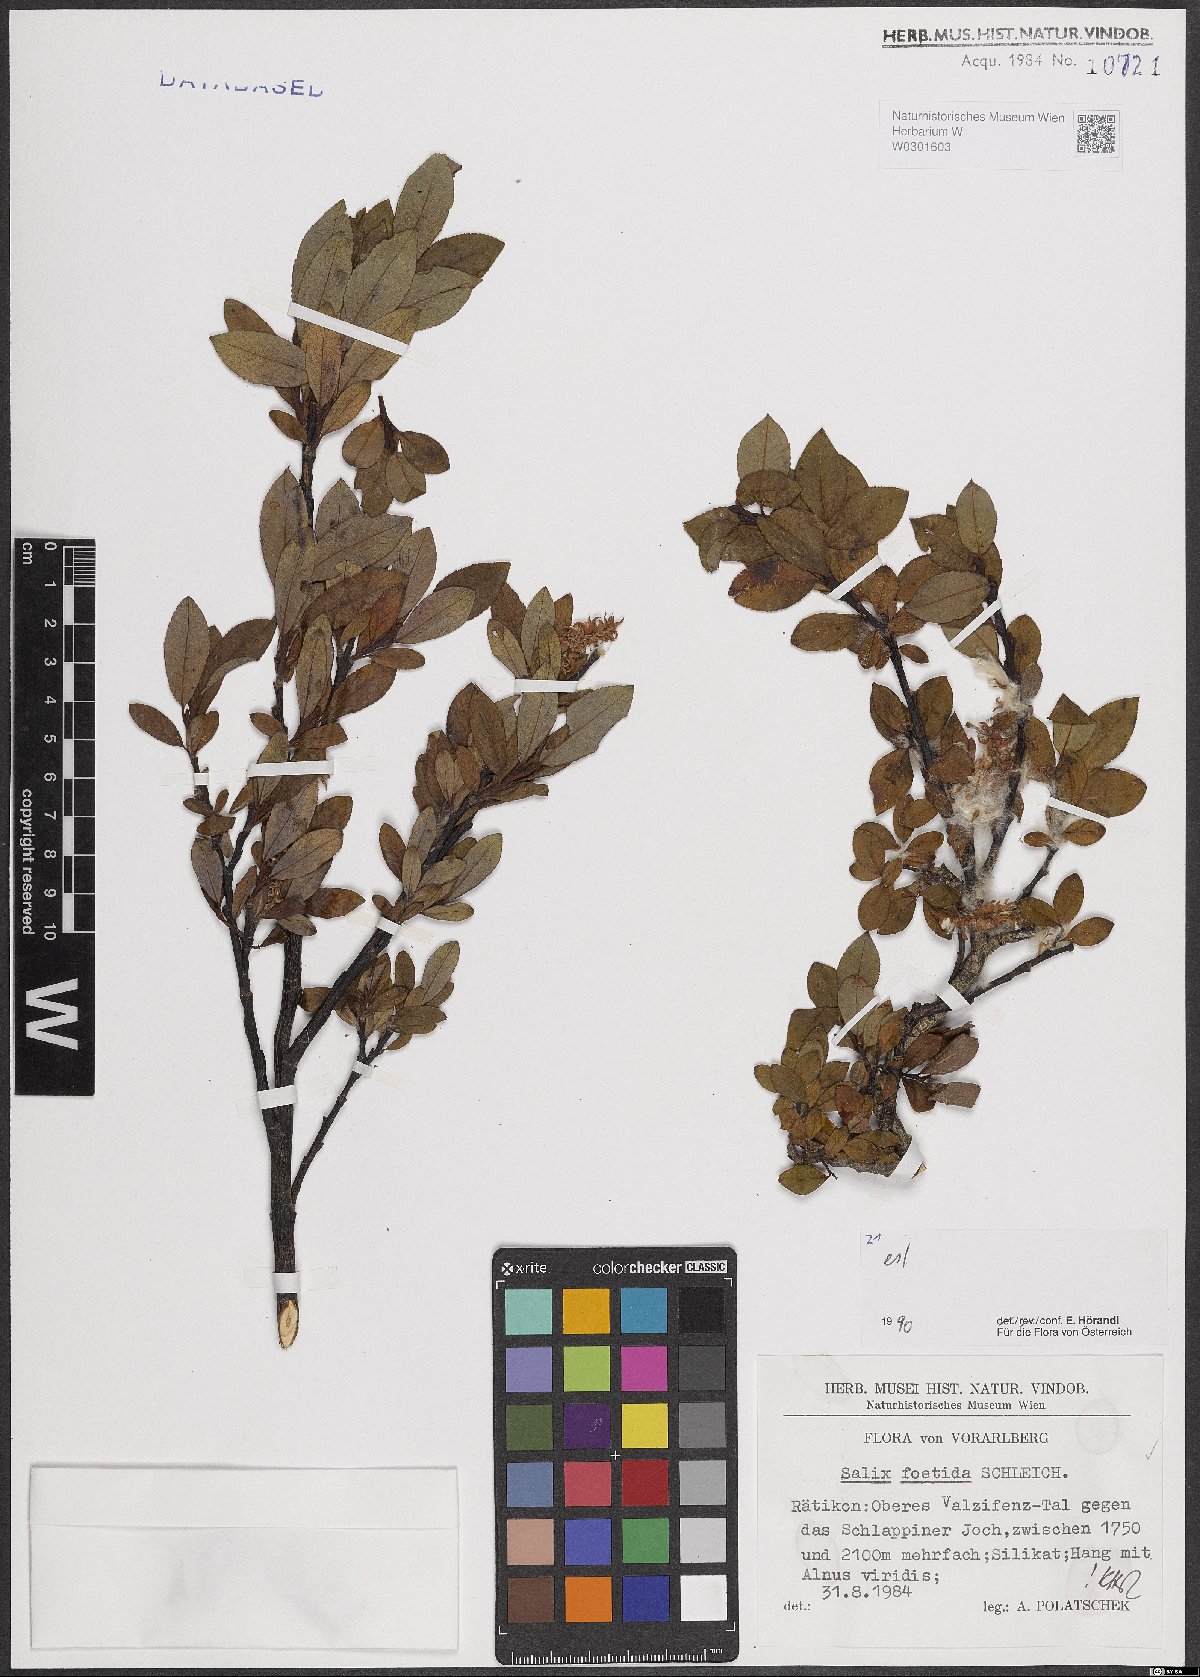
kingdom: Plantae
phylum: Tracheophyta
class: Magnoliopsida
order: Malpighiales
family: Salicaceae
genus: Salix
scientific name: Salix foetida
